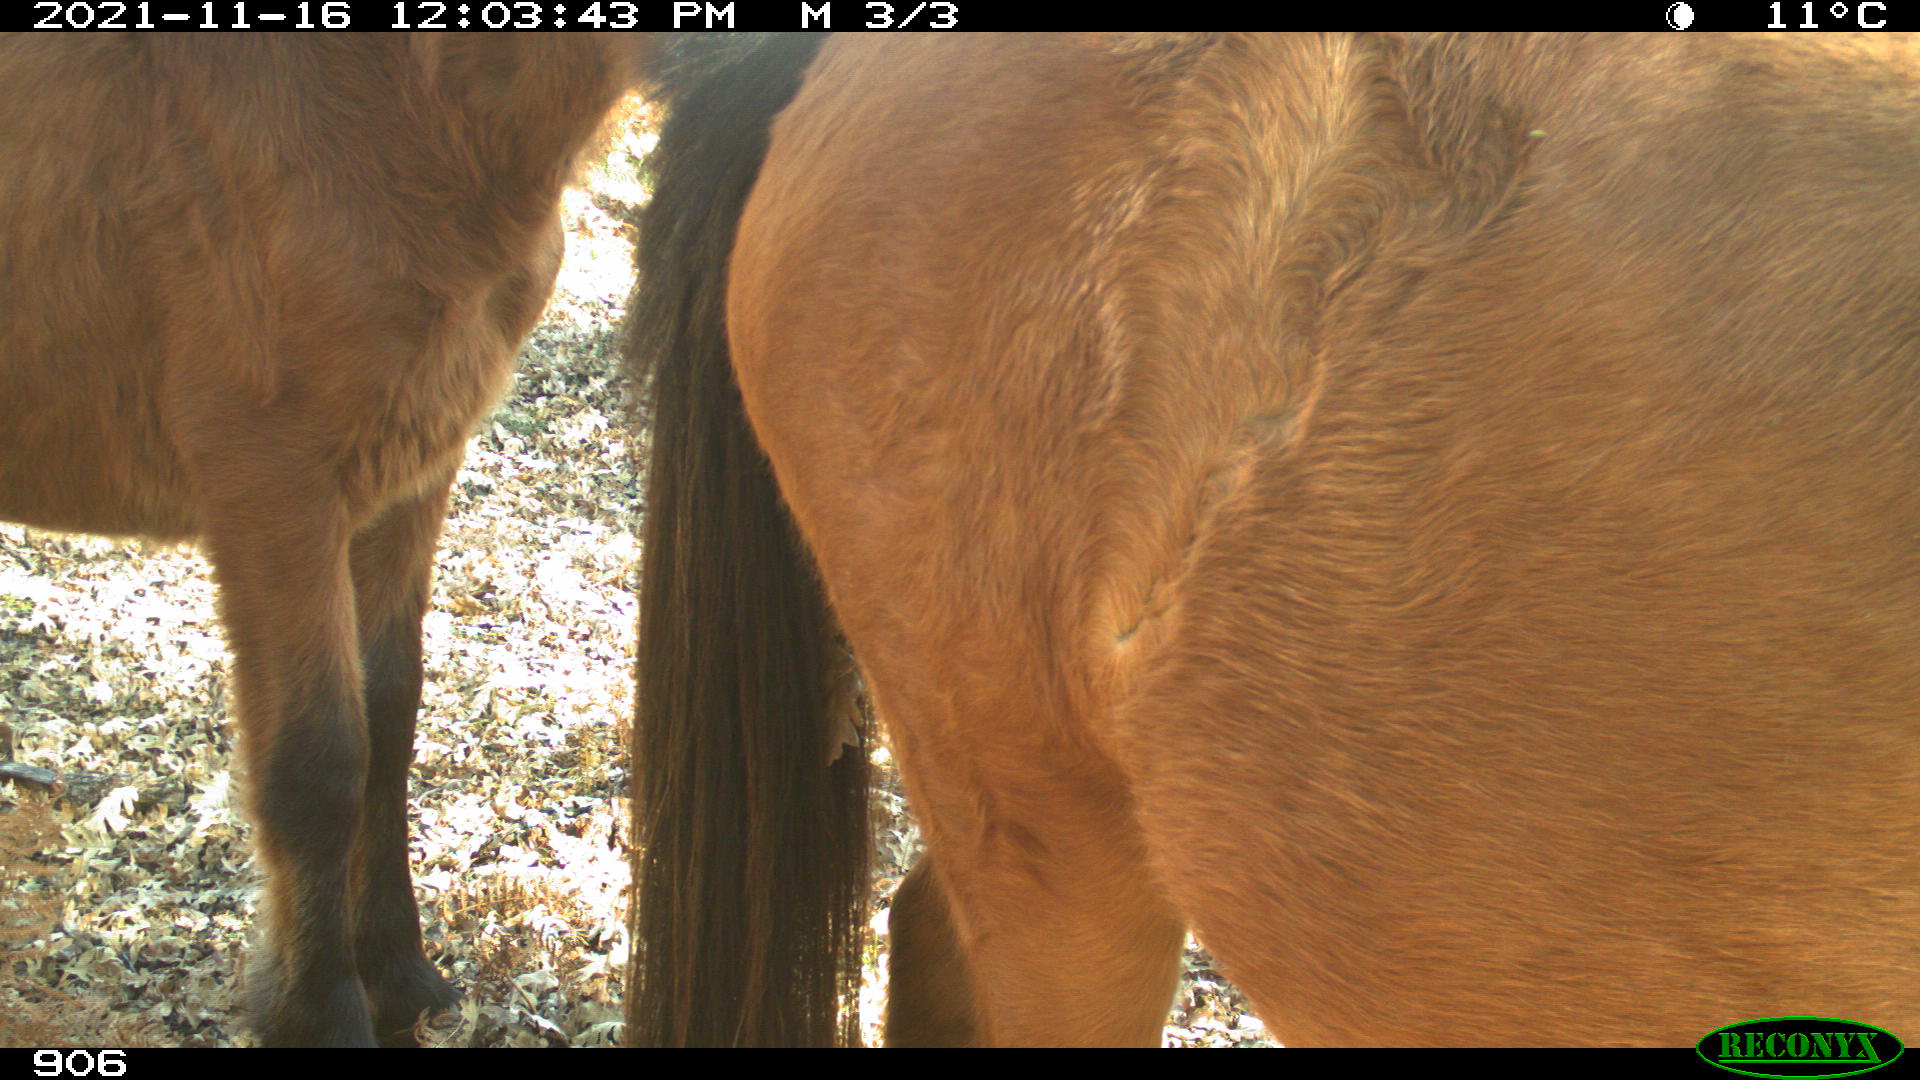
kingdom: Animalia
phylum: Chordata
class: Mammalia
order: Perissodactyla
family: Equidae
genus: Equus
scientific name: Equus caballus
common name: Horse
